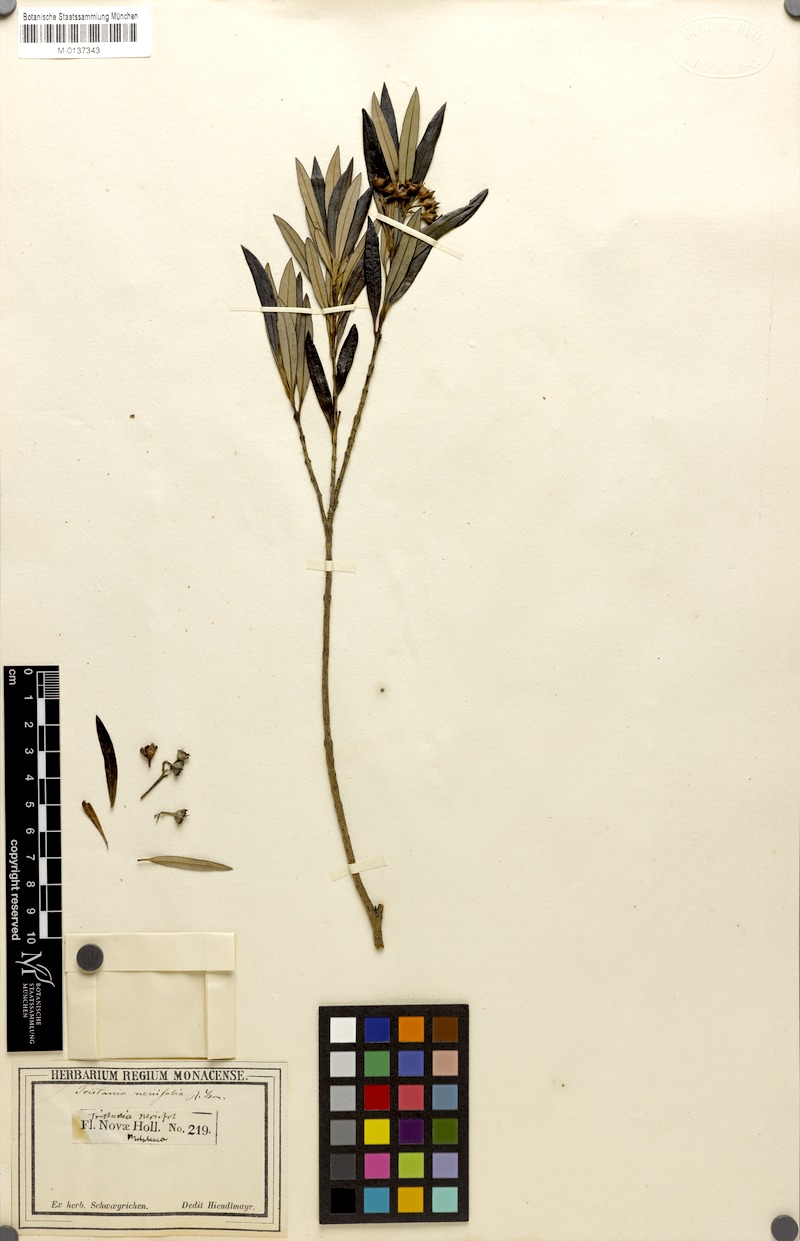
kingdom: Plantae
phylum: Tracheophyta
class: Magnoliopsida
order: Myrtales
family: Myrtaceae
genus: Tristania
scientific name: Tristania neriifolia
